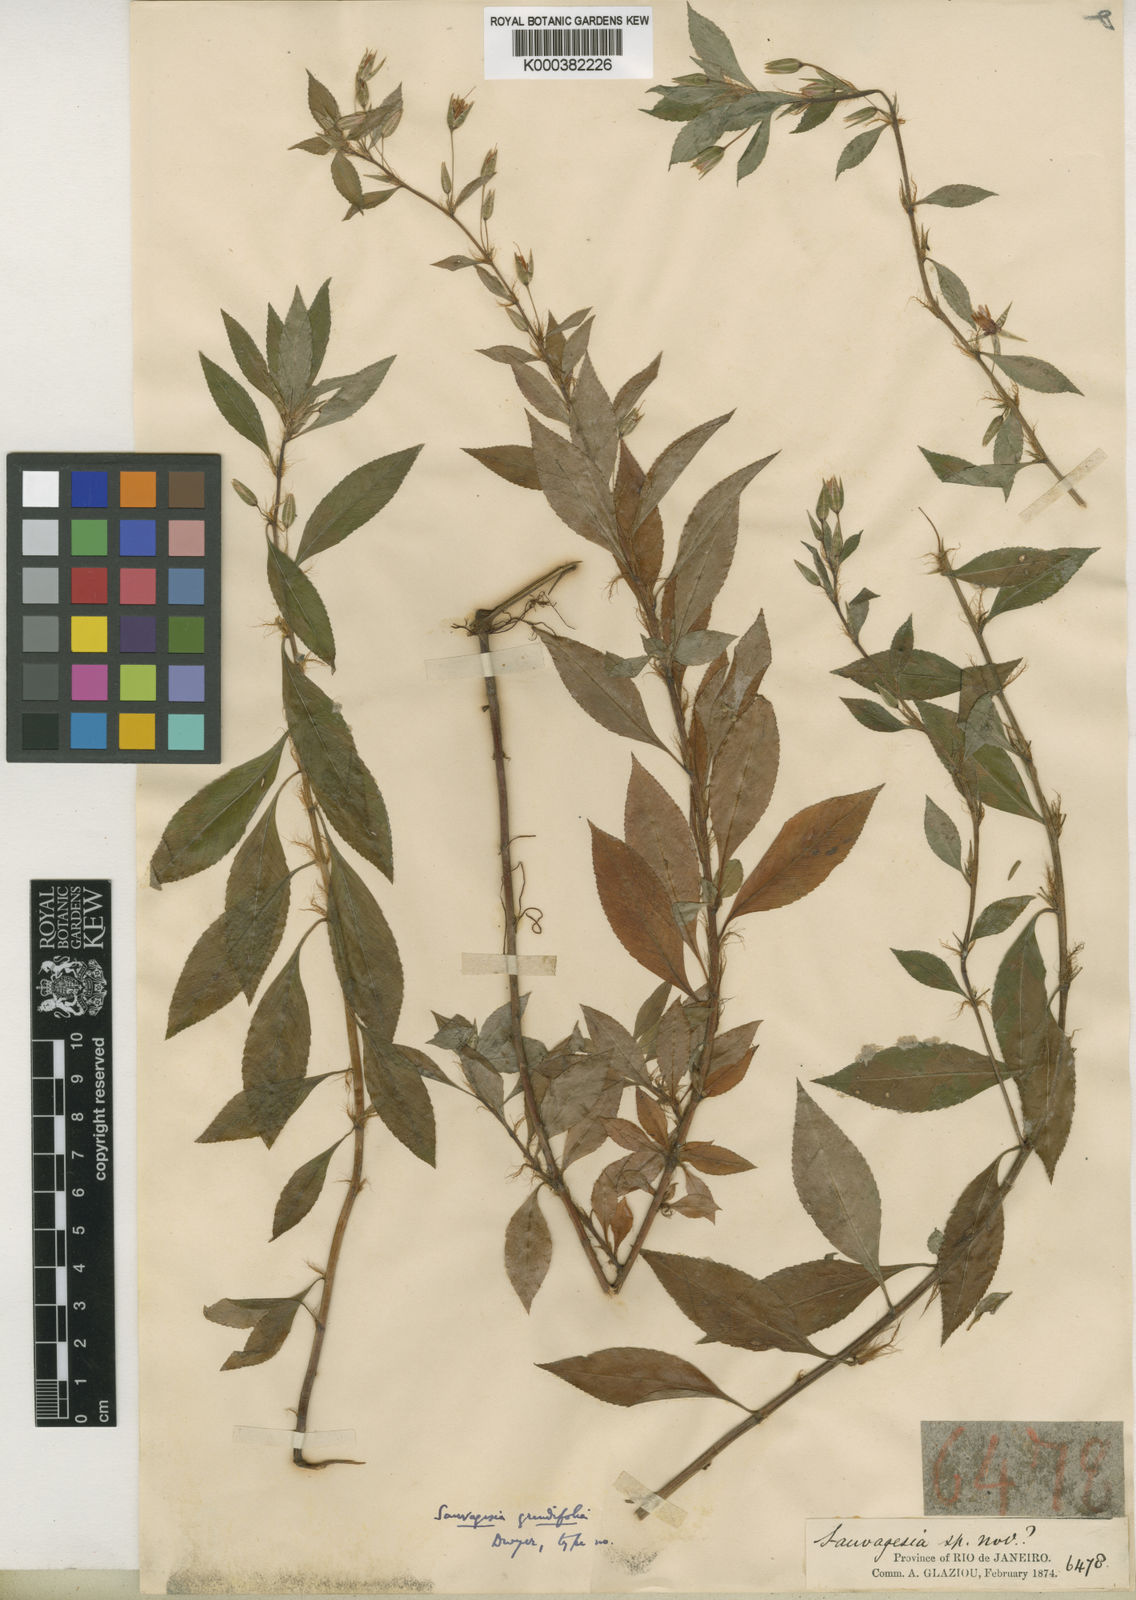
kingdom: Plantae
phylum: Tracheophyta
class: Magnoliopsida
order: Malpighiales
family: Ochnaceae
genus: Sauvagesia
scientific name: Sauvagesia erecta
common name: Creole tea
